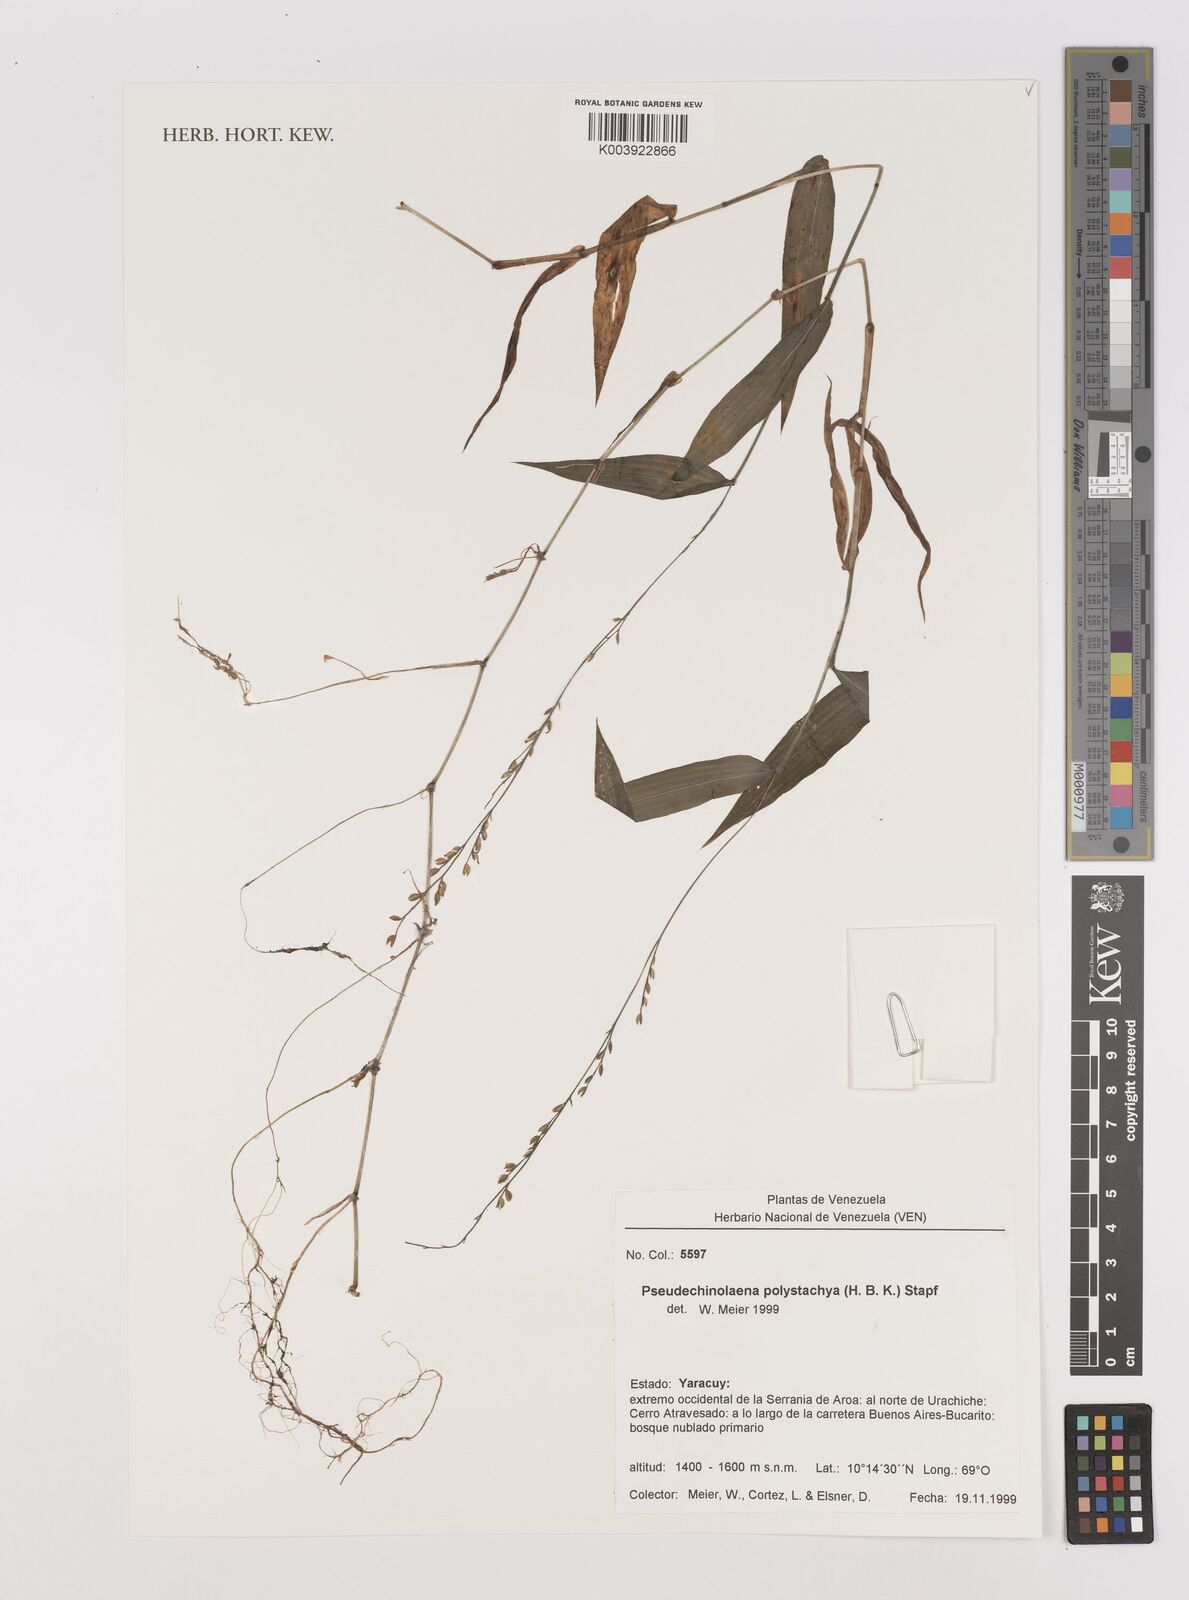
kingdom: Plantae
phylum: Tracheophyta
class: Liliopsida
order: Poales
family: Poaceae
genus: Pseudechinolaena
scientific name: Pseudechinolaena polystachya
